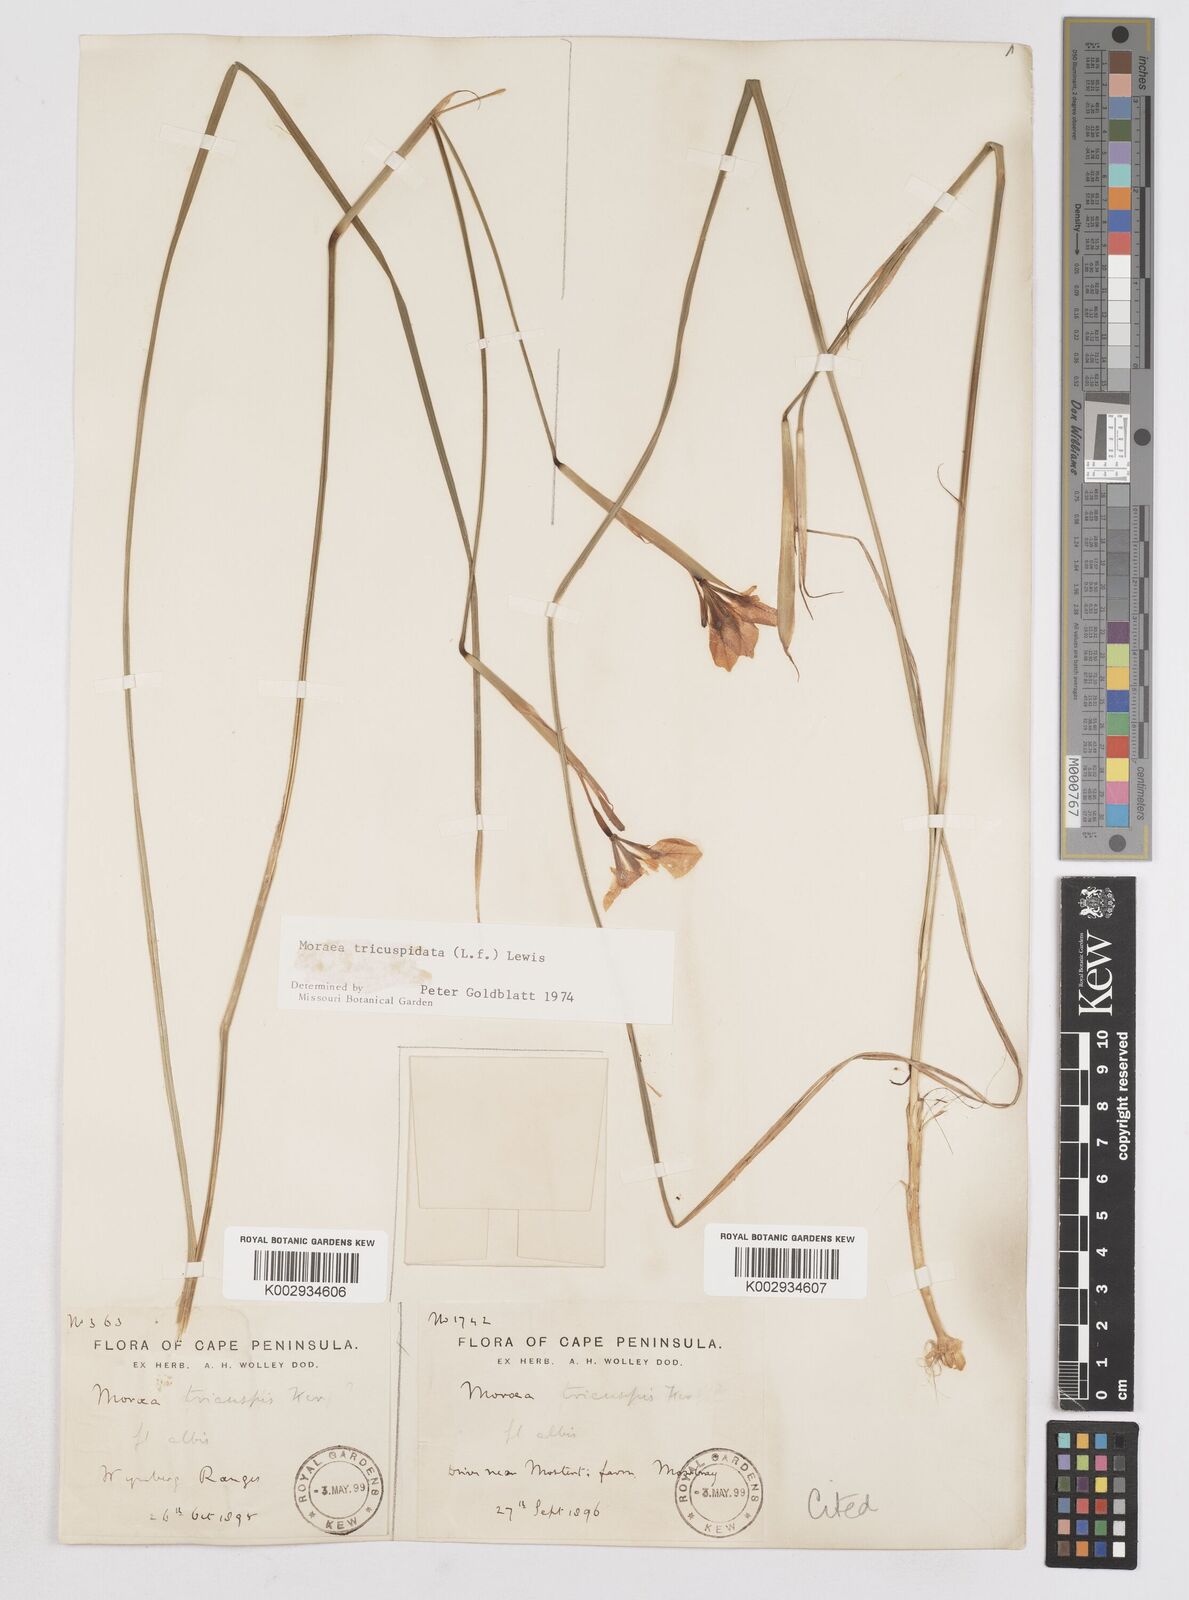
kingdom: Plantae
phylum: Tracheophyta
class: Liliopsida
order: Asparagales
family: Iridaceae
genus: Moraea
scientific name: Moraea tricuspidata
